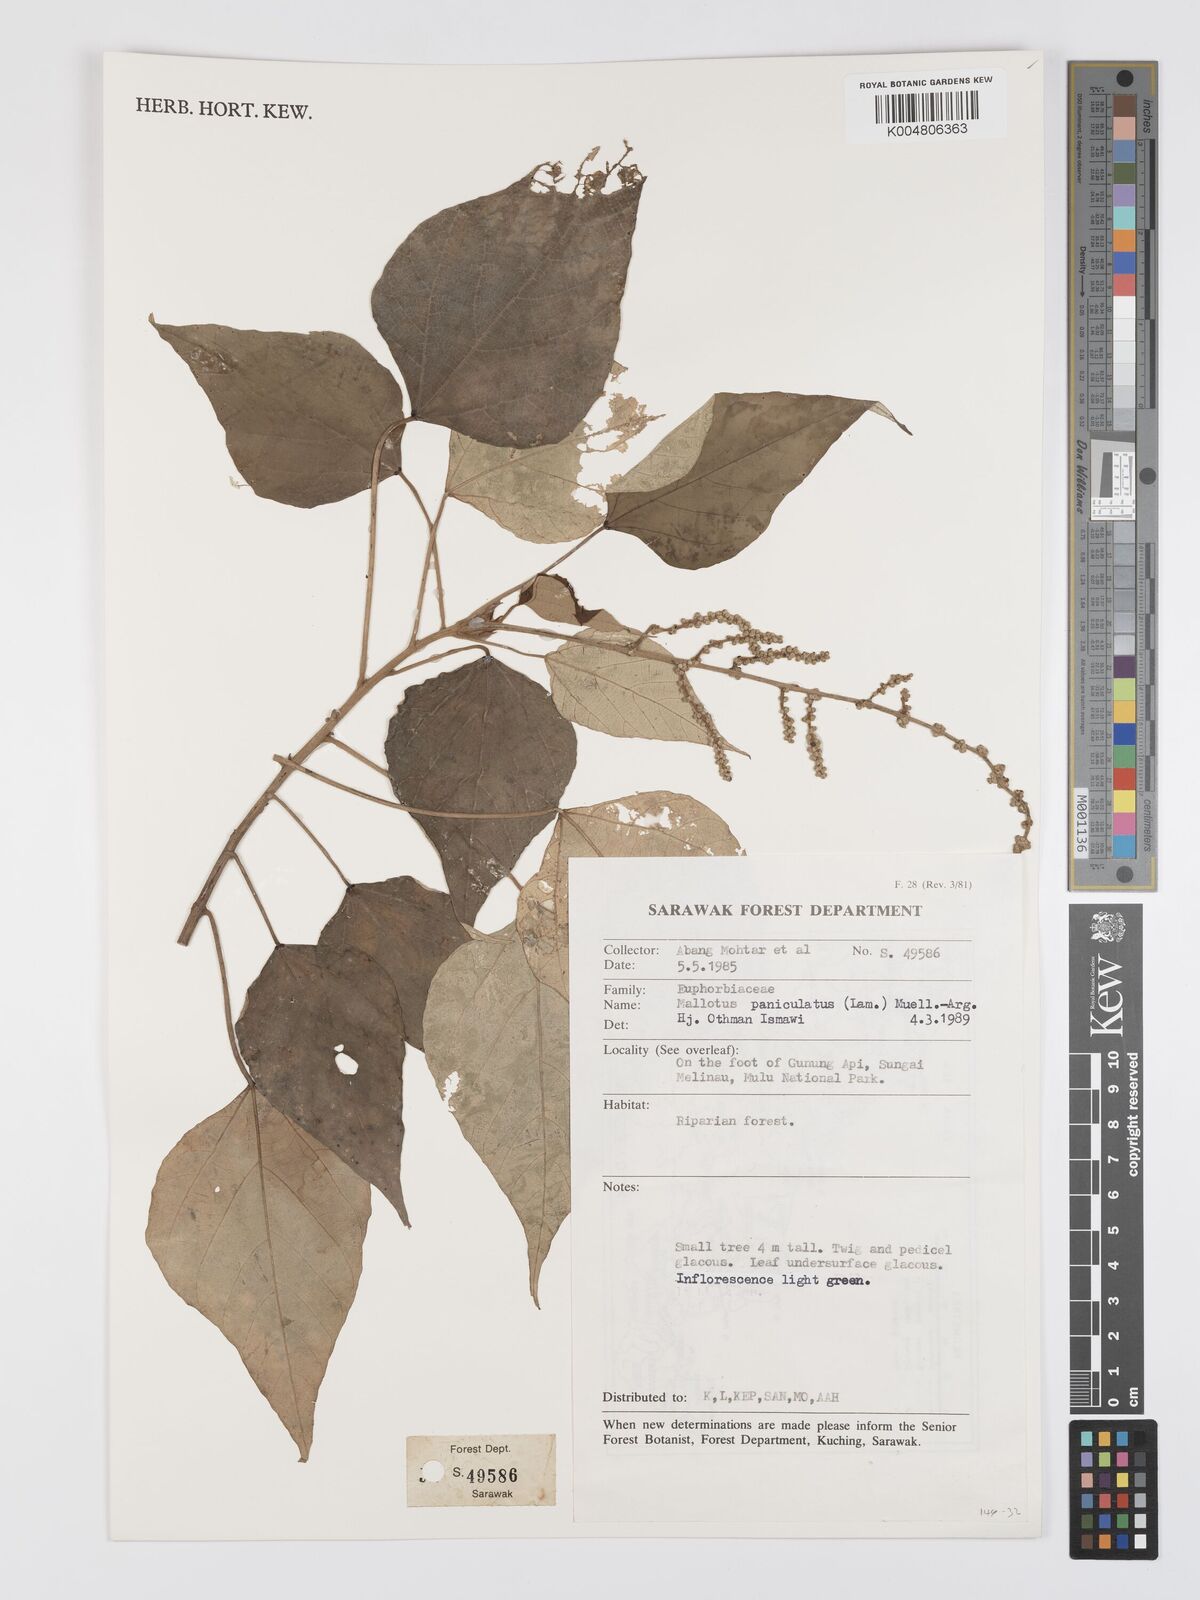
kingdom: Plantae
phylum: Tracheophyta
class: Magnoliopsida
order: Malpighiales
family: Euphorbiaceae
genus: Mallotus
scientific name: Mallotus paniculatus
